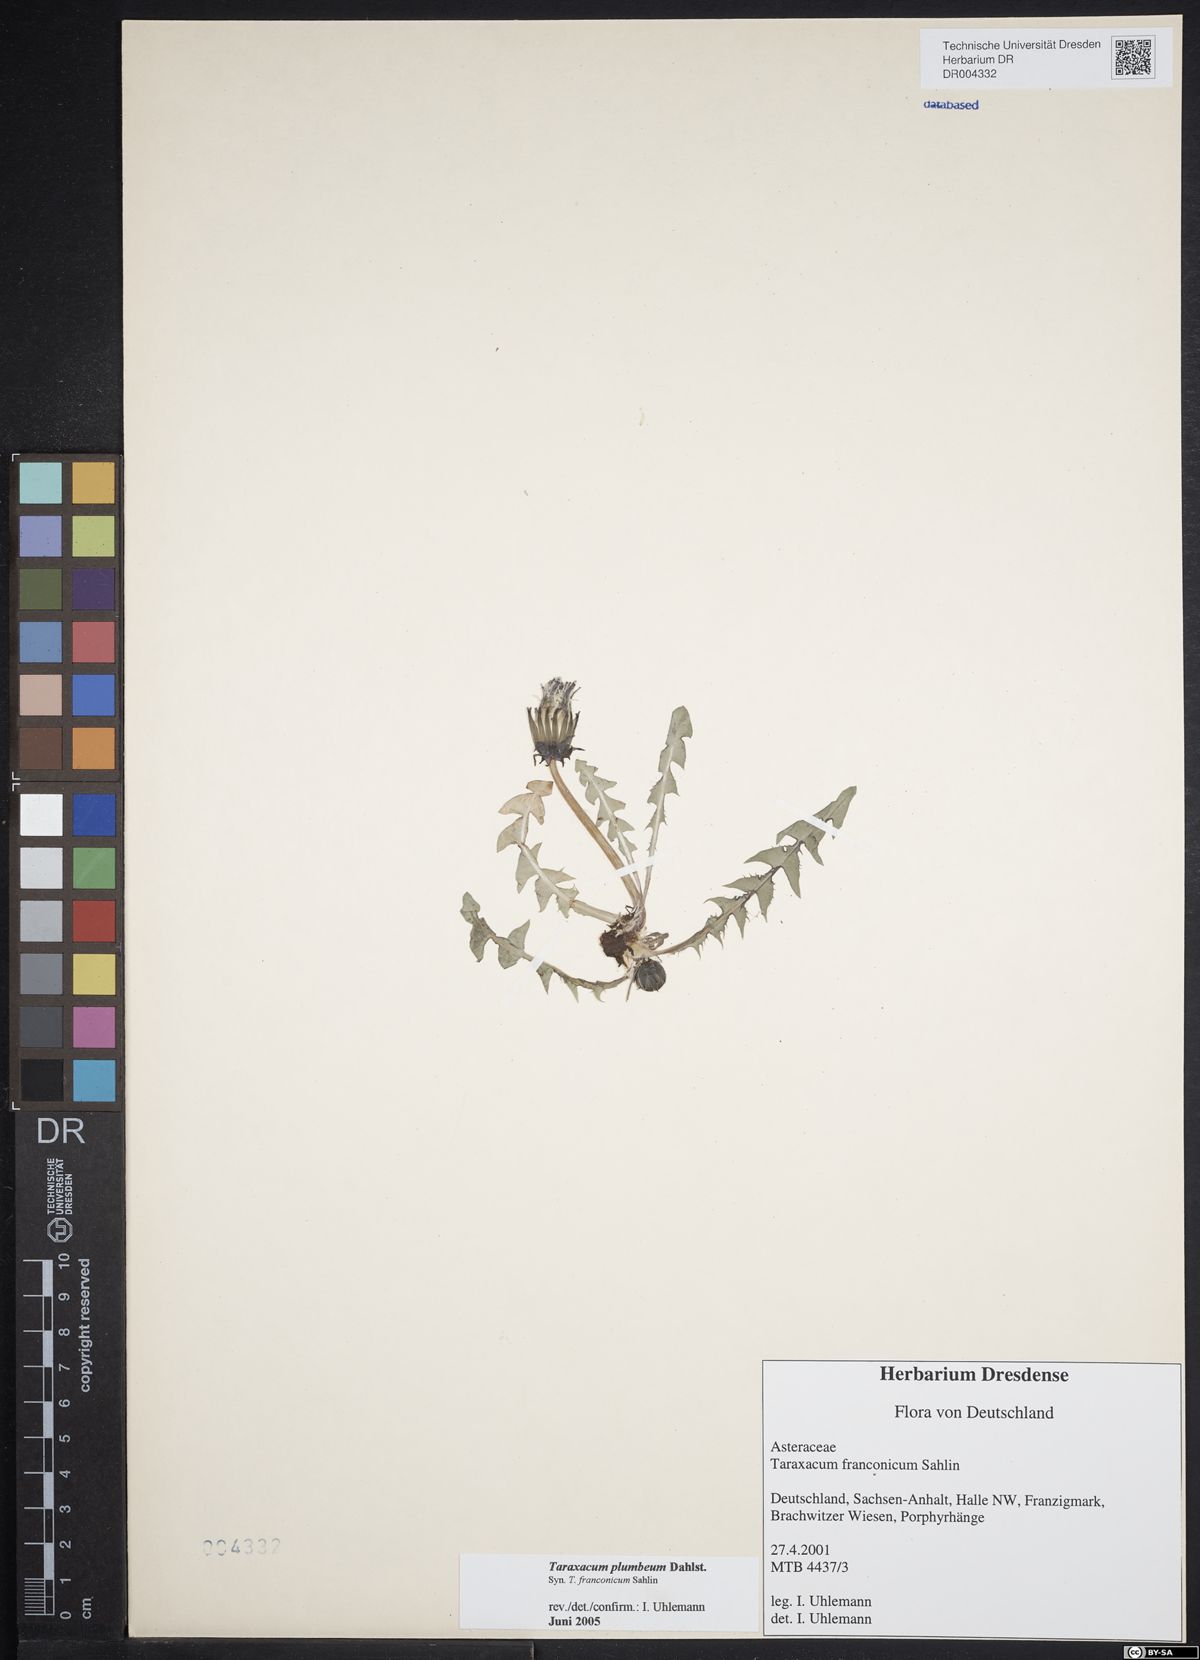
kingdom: Plantae
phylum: Tracheophyta
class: Magnoliopsida
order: Asterales
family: Asteraceae
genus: Taraxacum
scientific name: Taraxacum plumbeum
